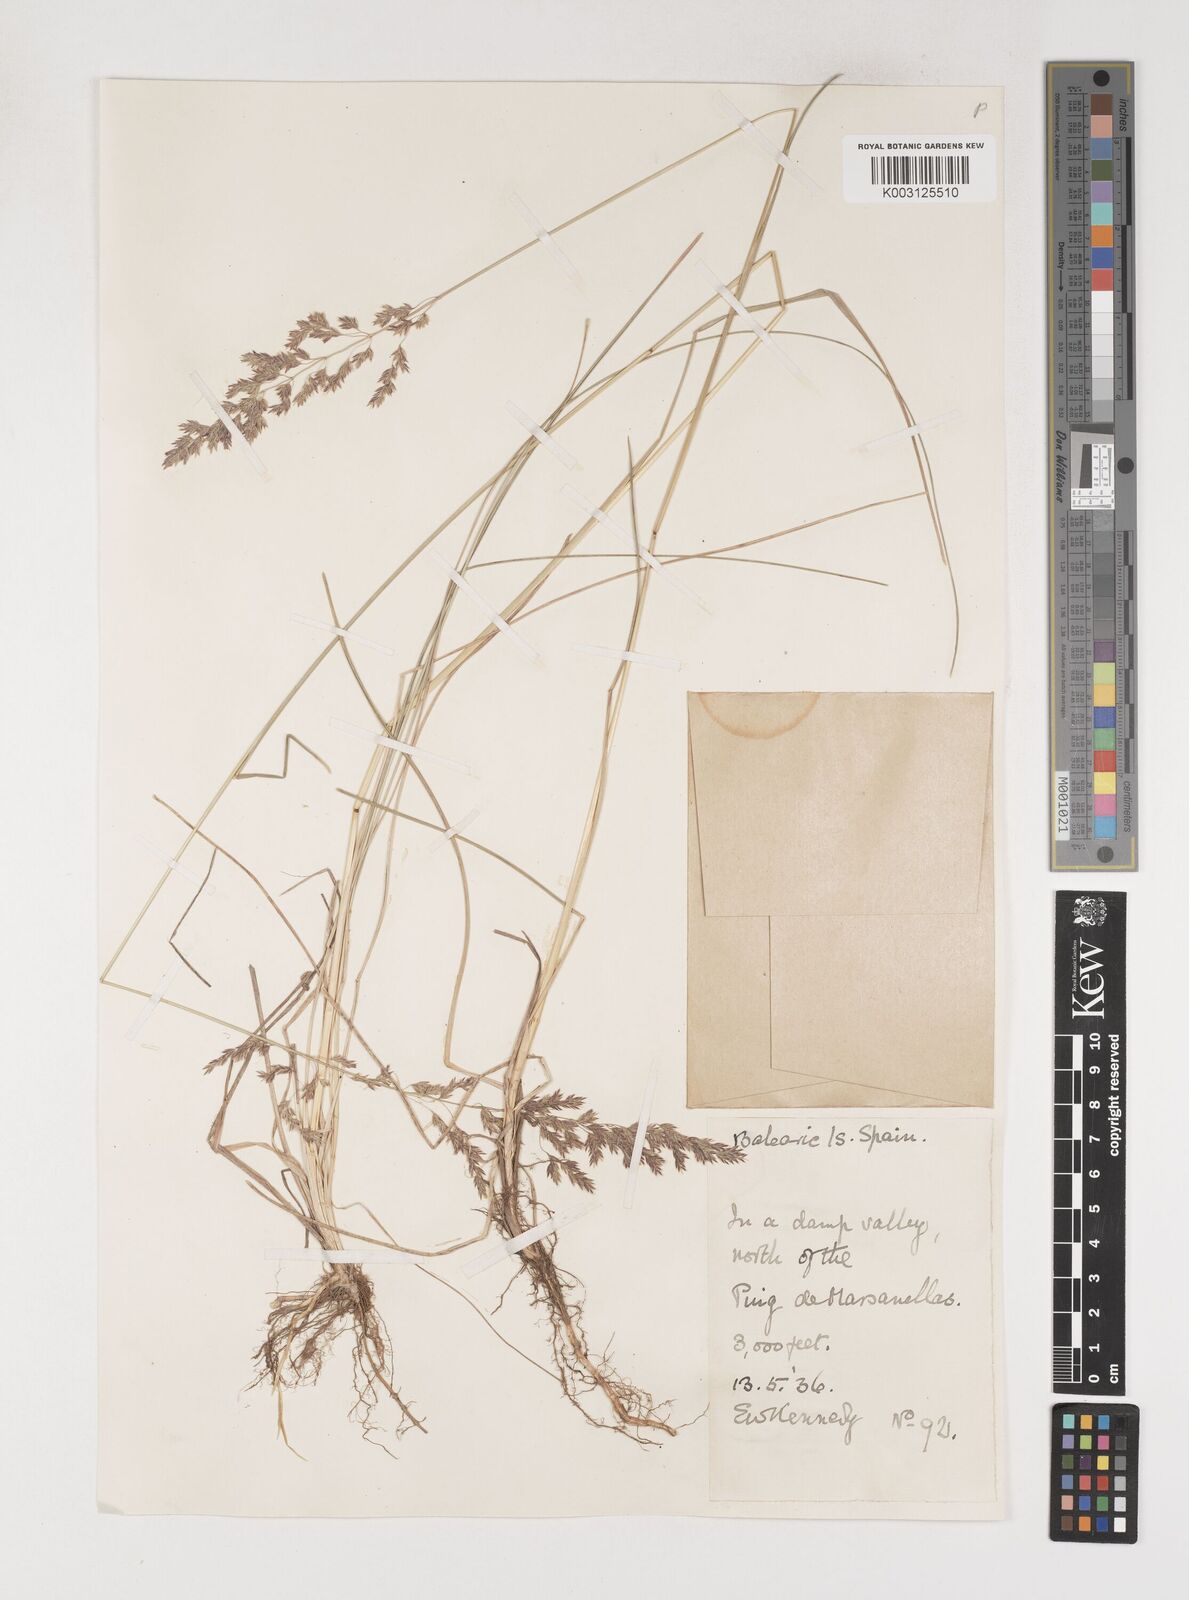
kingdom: Plantae
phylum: Tracheophyta
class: Liliopsida
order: Poales
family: Poaceae
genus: Poa
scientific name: Poa angustifolia
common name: Narrow-leaved meadow-grass
